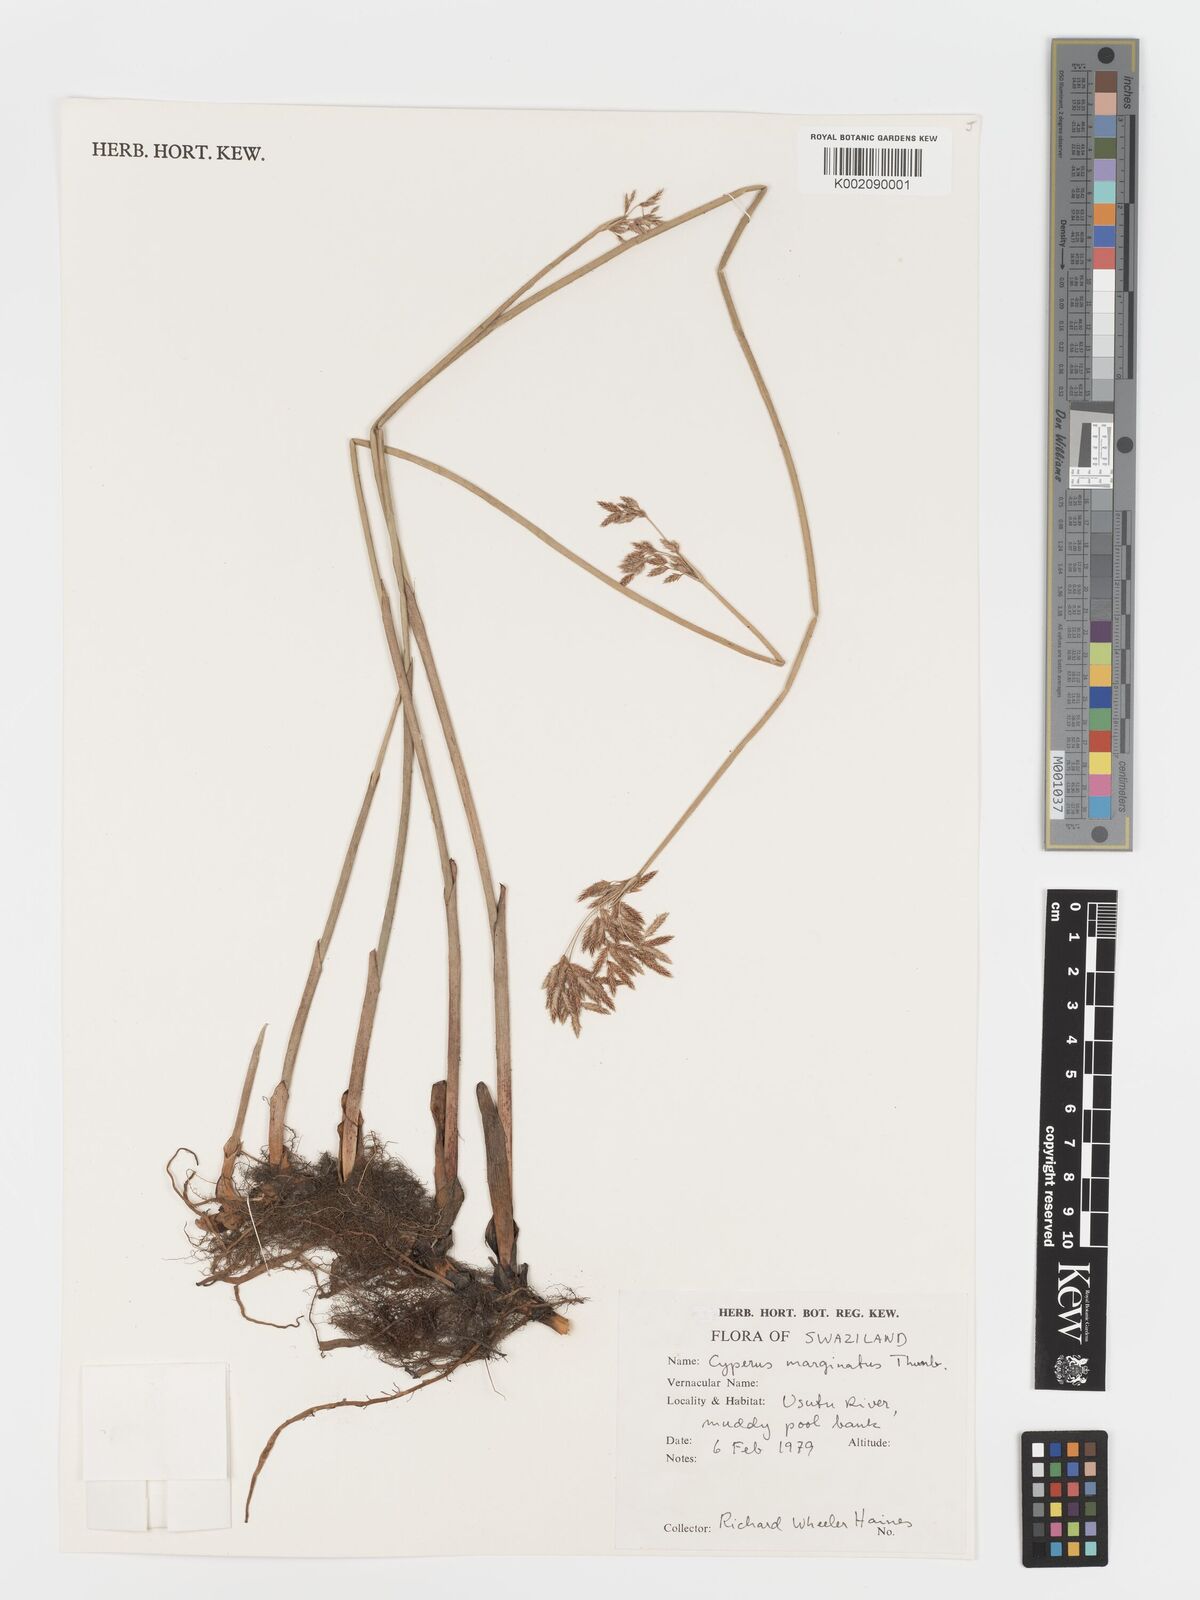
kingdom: Plantae
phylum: Tracheophyta
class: Liliopsida
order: Poales
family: Cyperaceae
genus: Cyperus
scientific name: Cyperus marginatus
